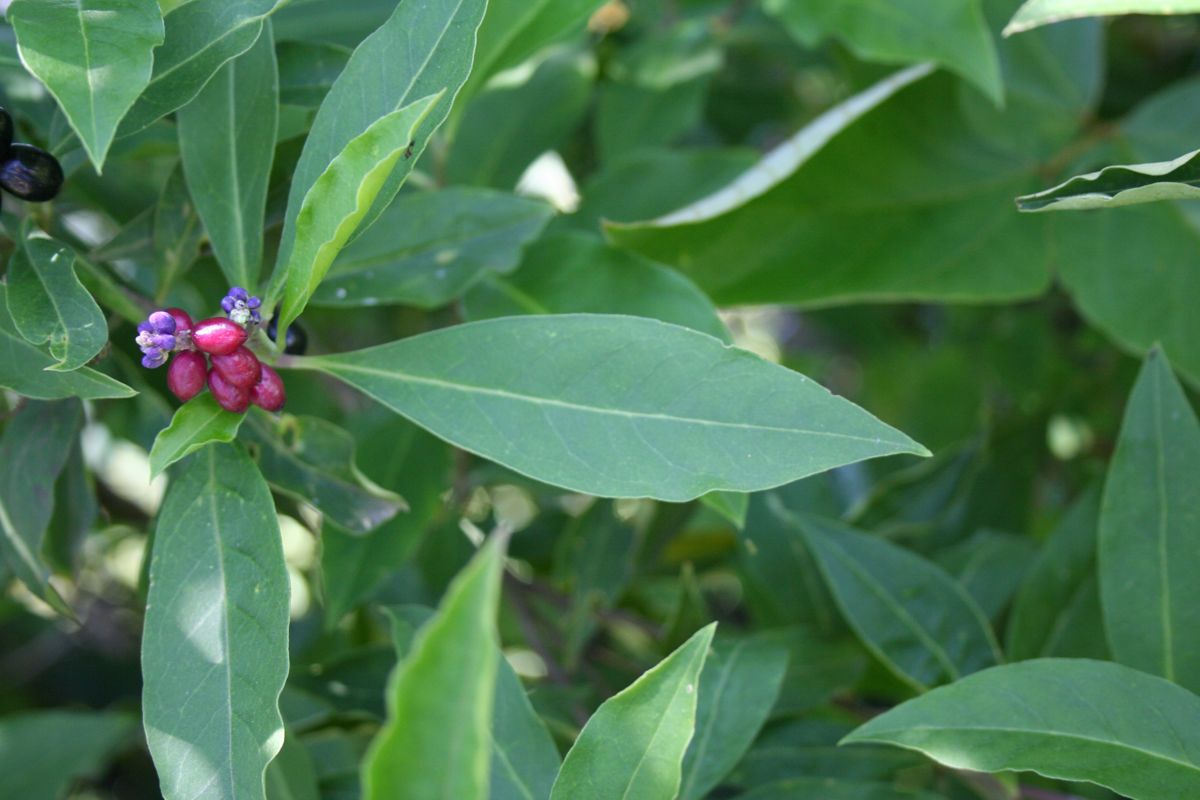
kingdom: Plantae
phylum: Tracheophyta
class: Magnoliopsida
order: Fabales
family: Polygalaceae
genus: Monnina
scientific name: Monnina xalapensis
